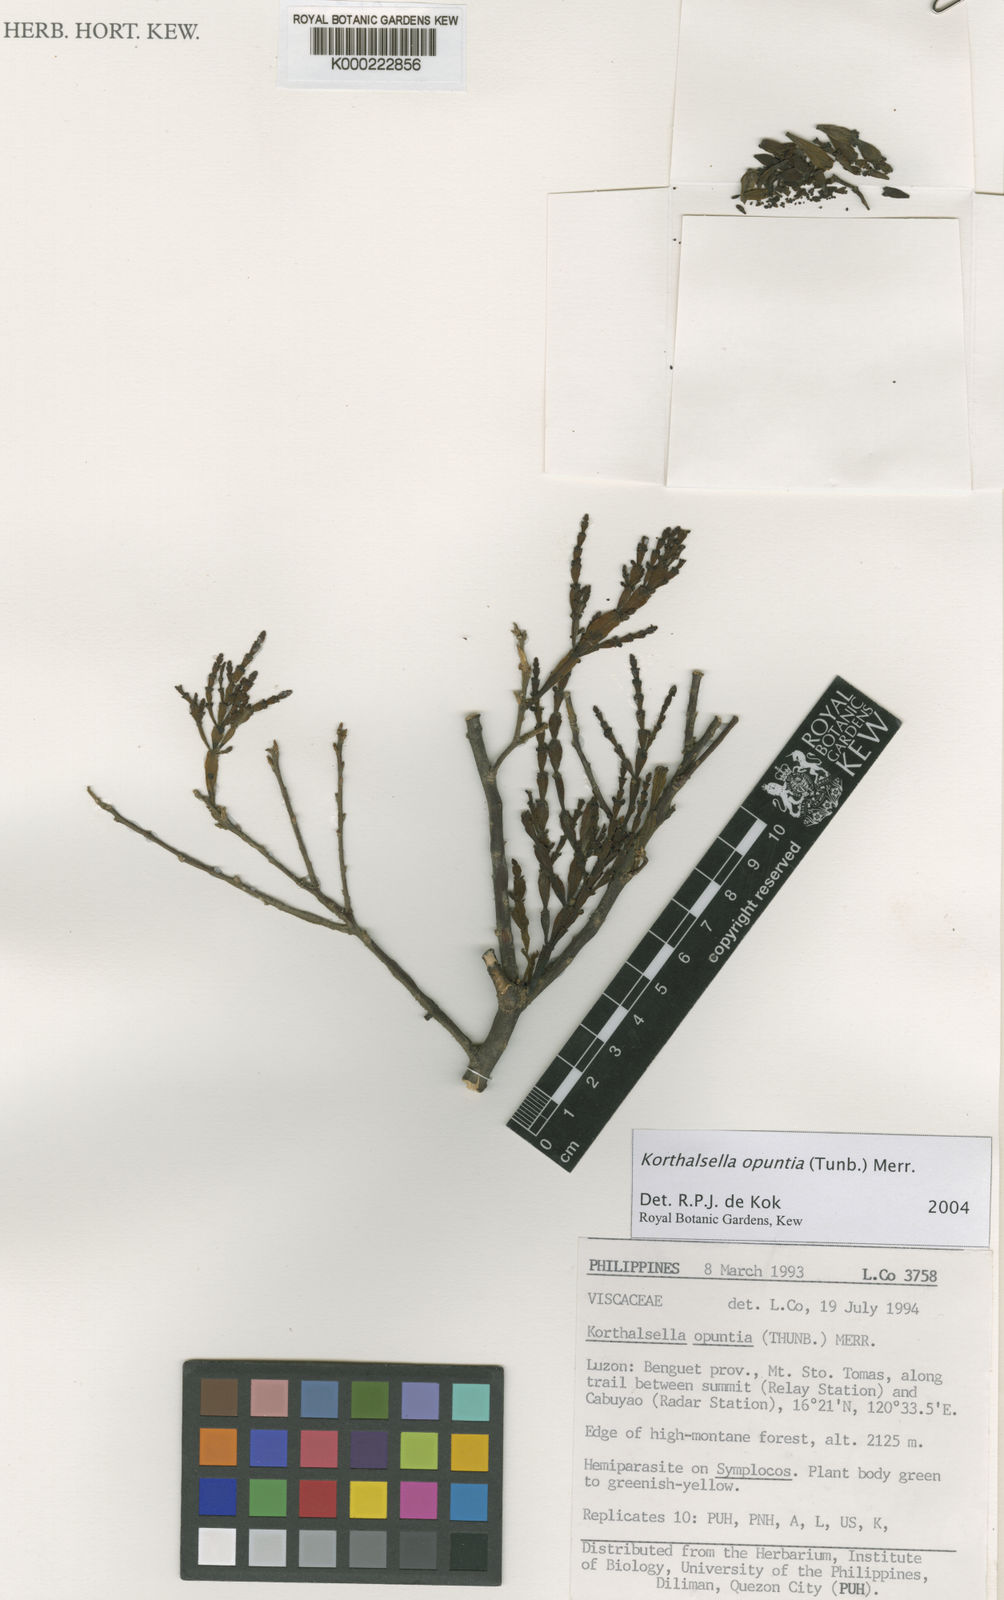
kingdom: Plantae
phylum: Tracheophyta
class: Magnoliopsida
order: Santalales
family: Viscaceae
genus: Korthalsella
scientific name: Korthalsella japonica
